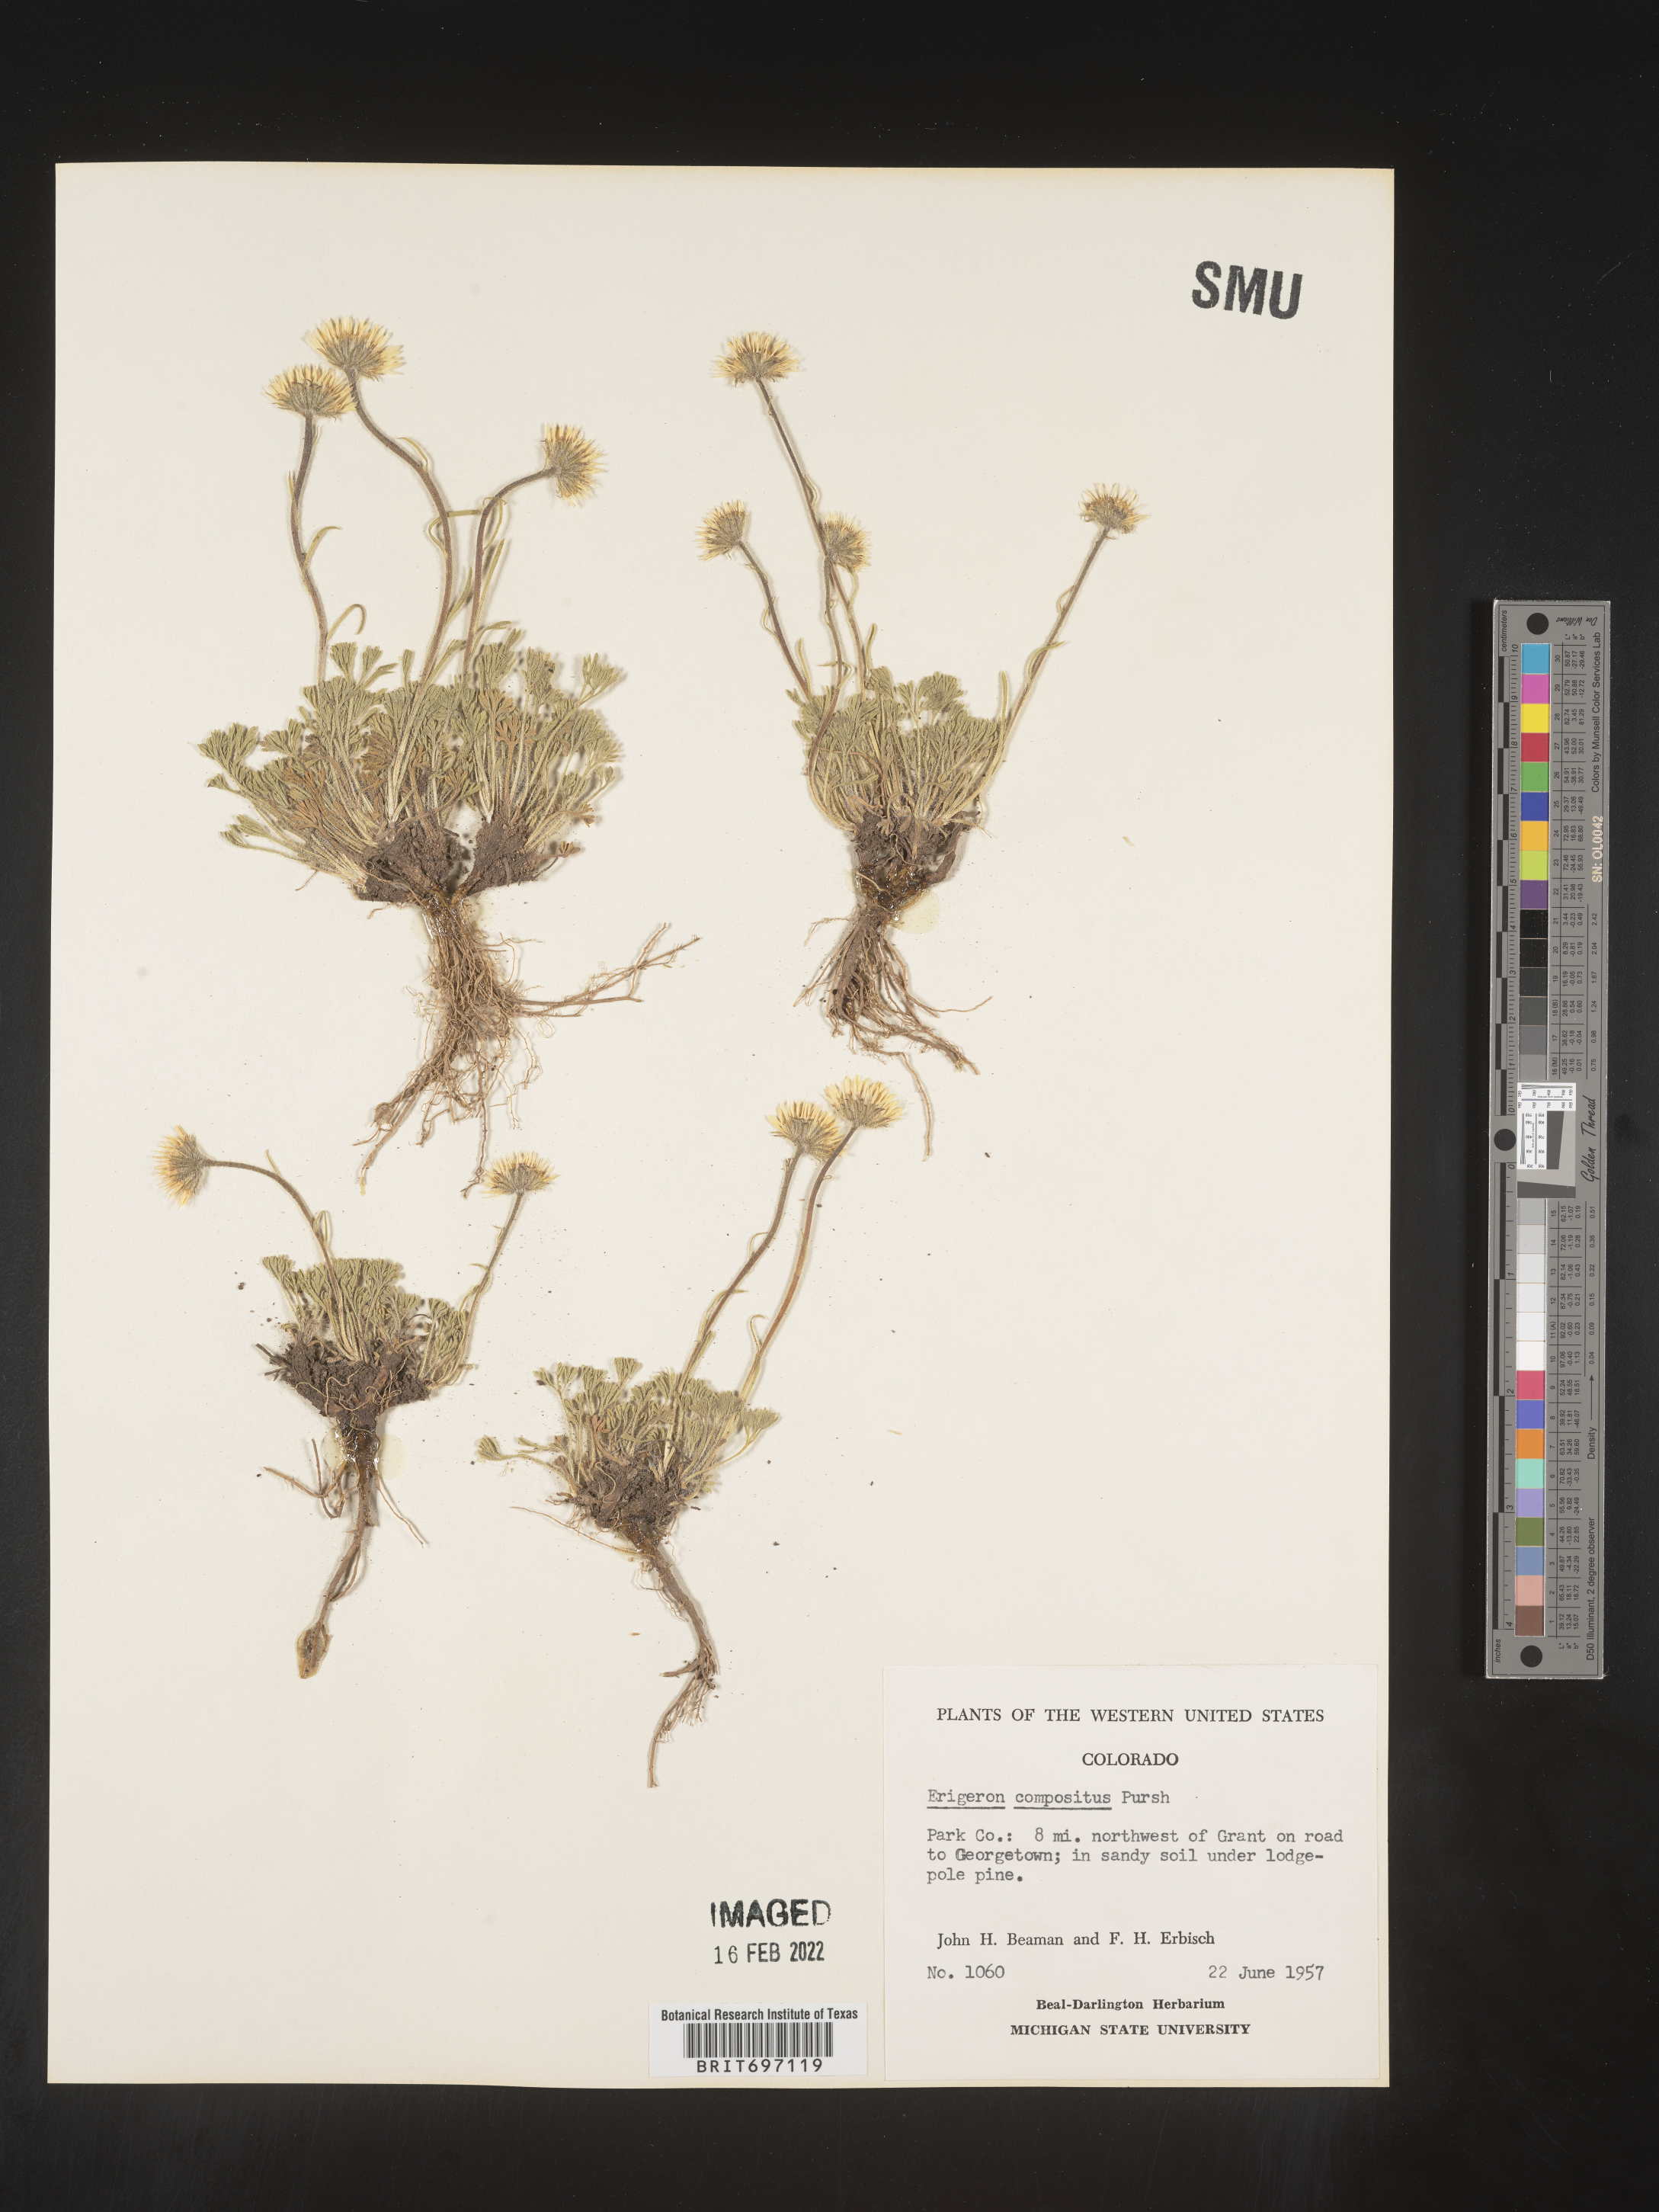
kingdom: Plantae
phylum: Tracheophyta
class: Magnoliopsida
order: Asterales
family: Asteraceae
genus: Erigeron
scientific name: Erigeron compositus
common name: Dwarf mountain fleabane
